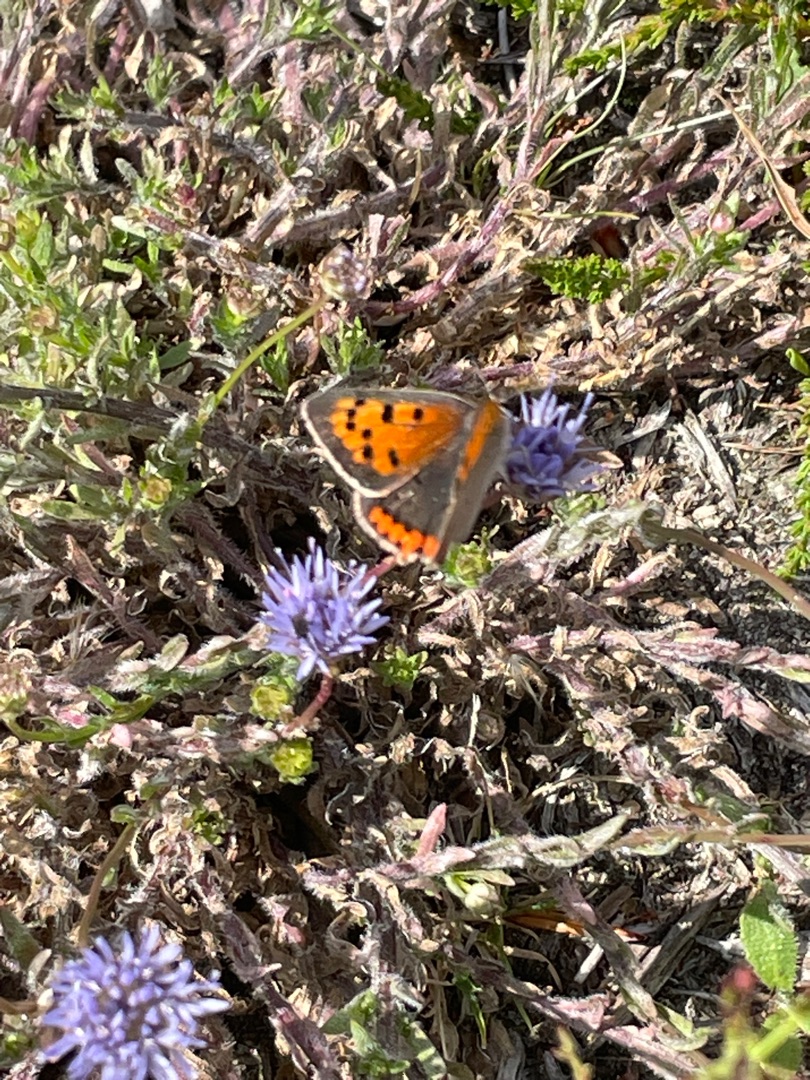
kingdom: Animalia
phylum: Arthropoda
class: Insecta
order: Lepidoptera
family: Lycaenidae
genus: Lycaena
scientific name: Lycaena phlaeas
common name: Lille ildfugl
